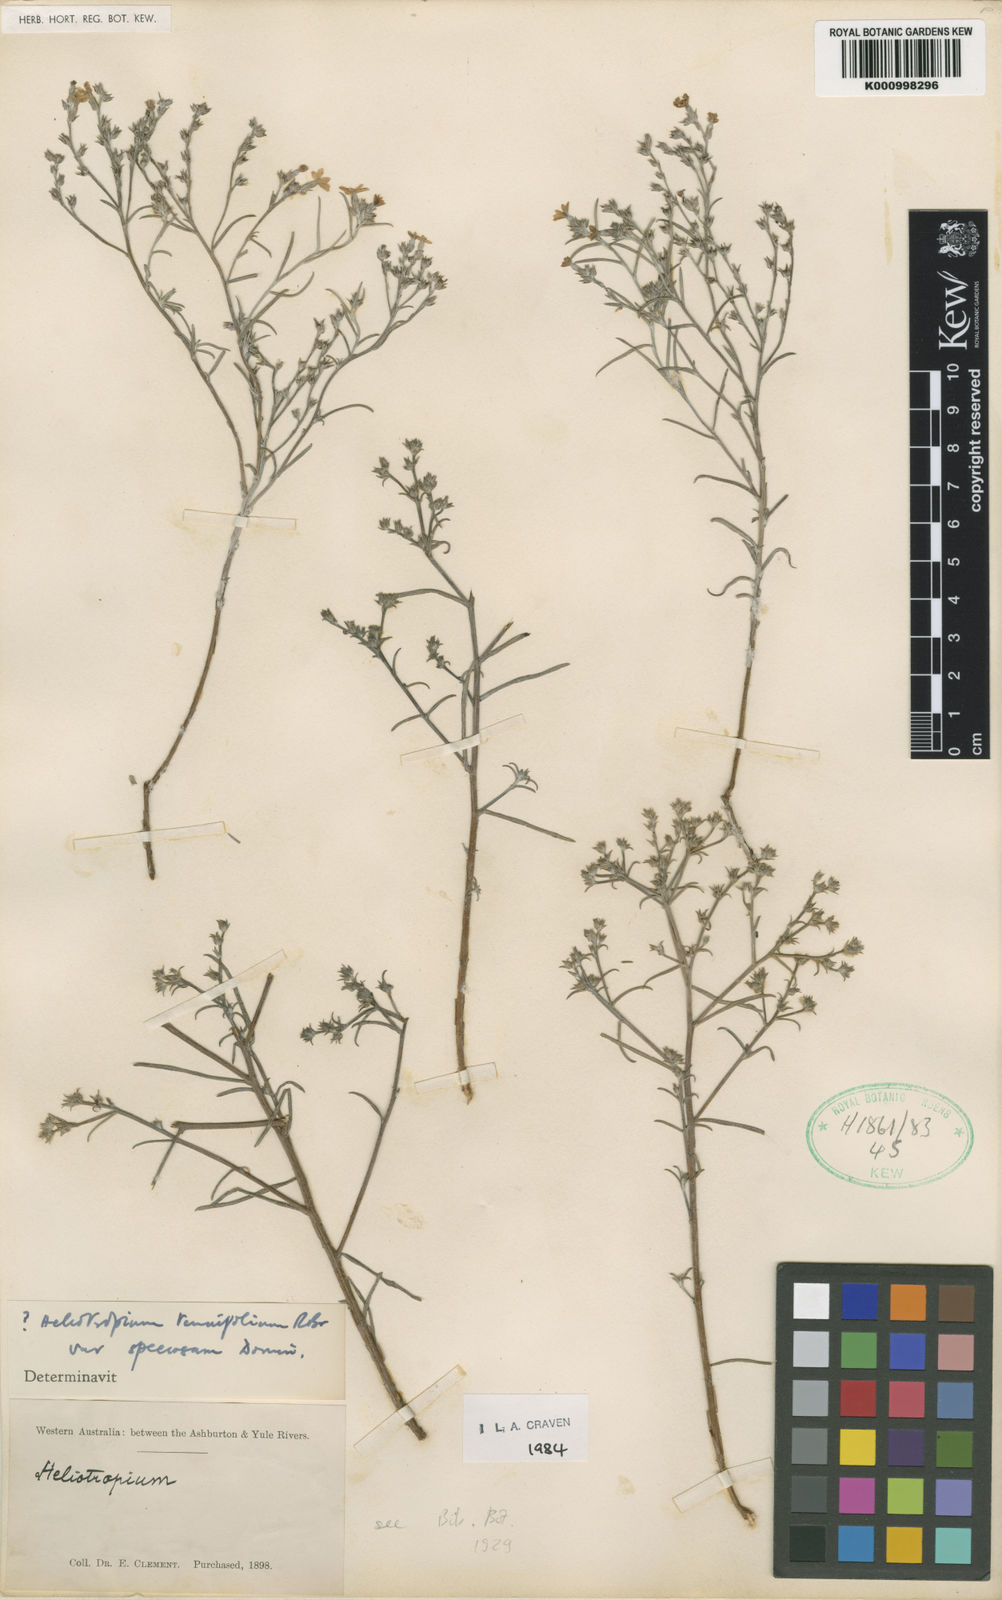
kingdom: Plantae
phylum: Tracheophyta
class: Magnoliopsida
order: Boraginales
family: Heliotropiaceae
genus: Euploca
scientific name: Euploca tenuifolia
